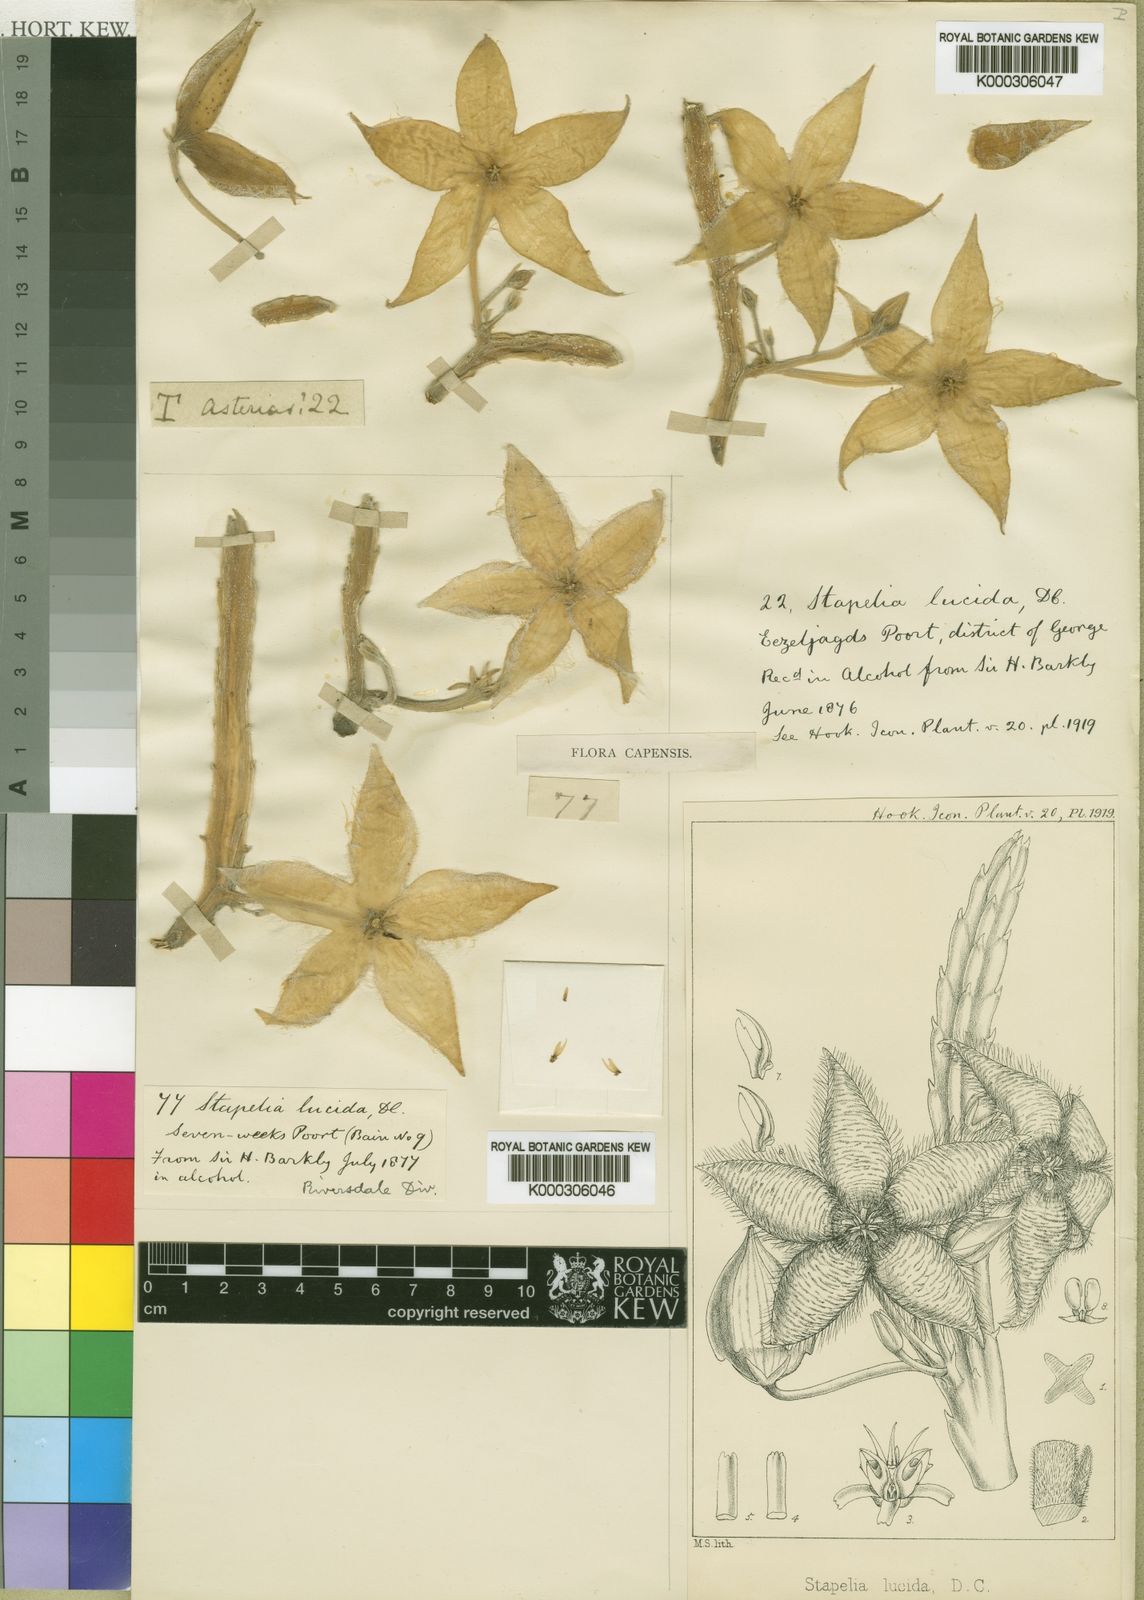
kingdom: Plantae
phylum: Tracheophyta
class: Magnoliopsida
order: Gentianales
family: Apocynaceae
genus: Ceropegia
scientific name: Ceropegia pulvinata
